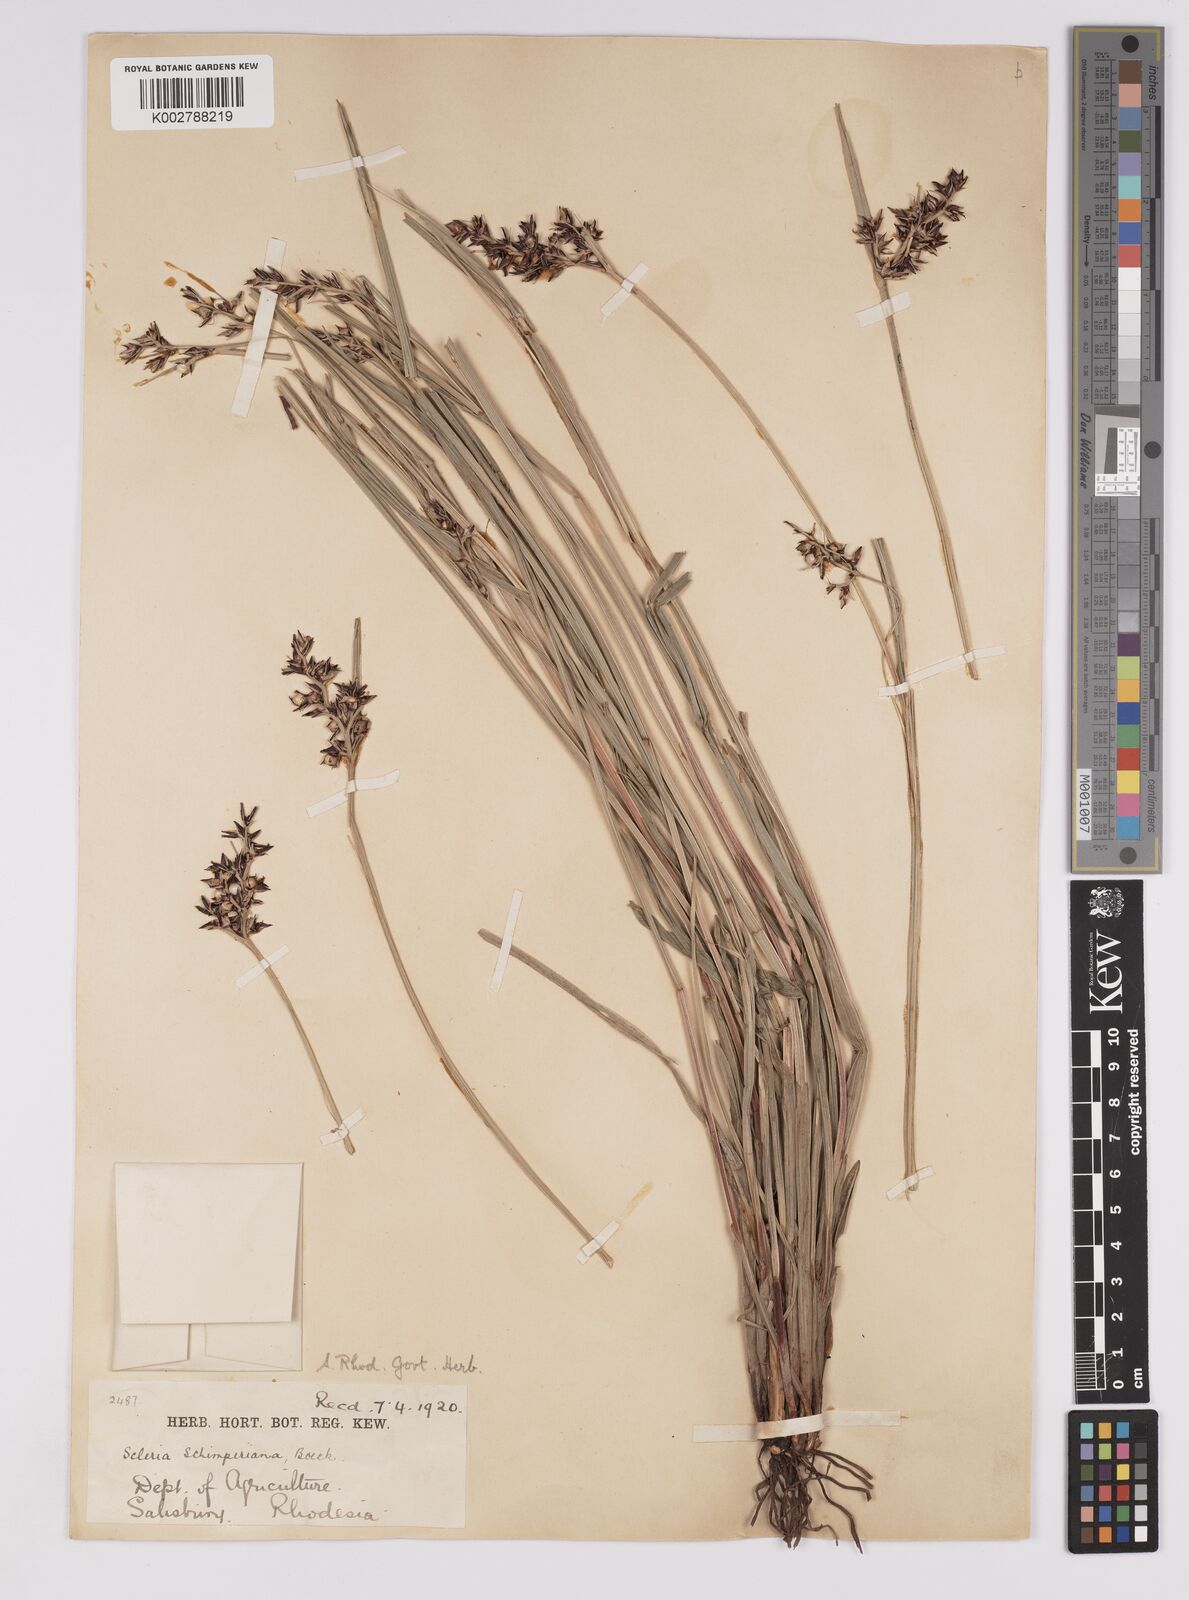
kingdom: Plantae
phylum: Tracheophyta
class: Liliopsida
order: Poales
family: Cyperaceae
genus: Scleria
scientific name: Scleria schimperiana
